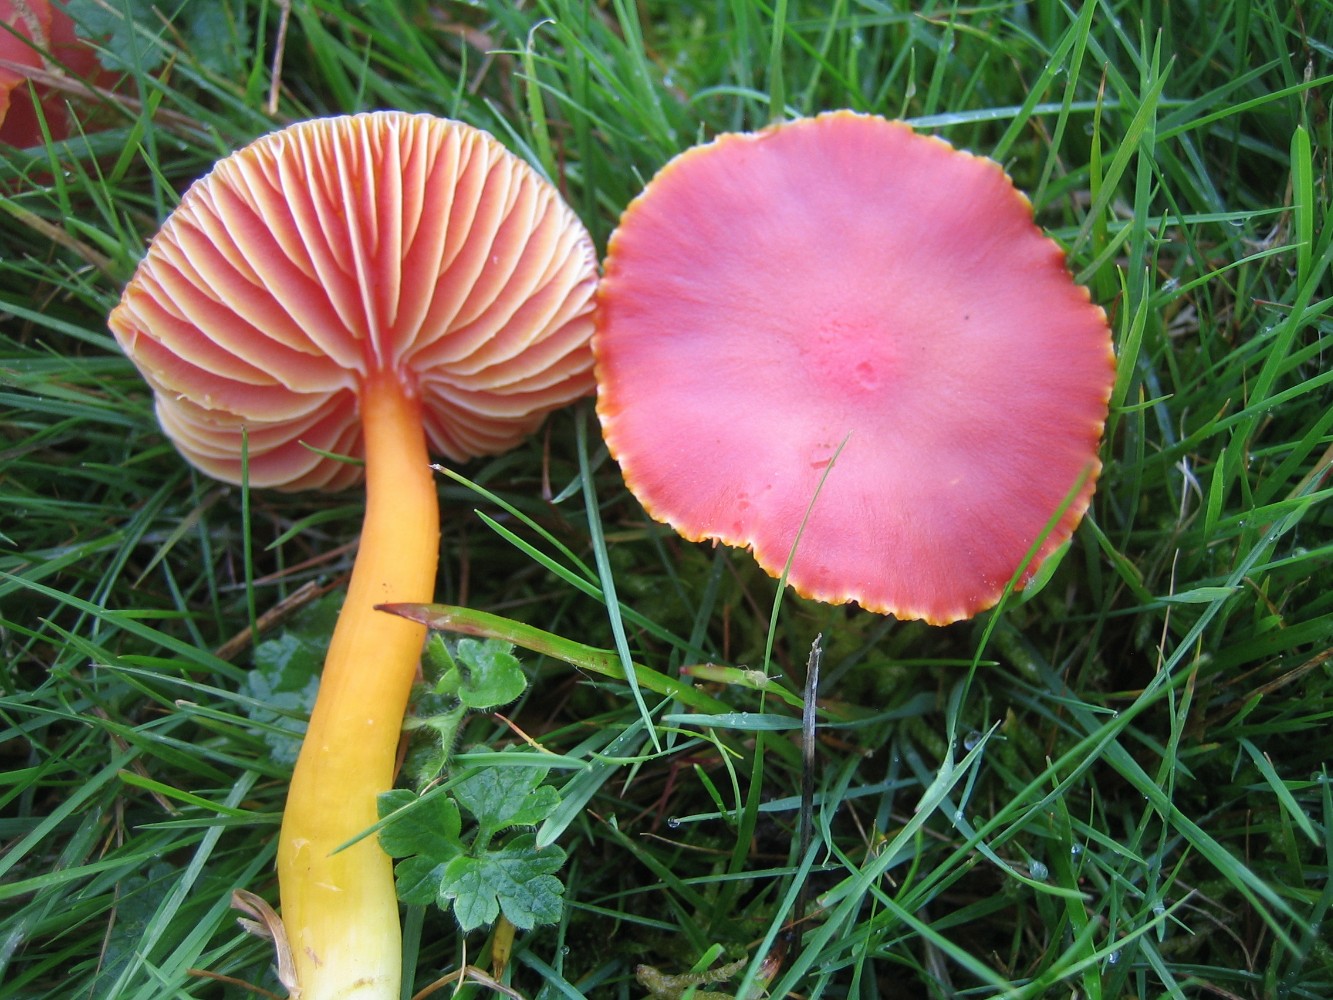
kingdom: Fungi
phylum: Basidiomycota
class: Agaricomycetes
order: Agaricales
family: Hygrophoraceae
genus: Hygrocybe
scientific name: Hygrocybe coccinea
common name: cinnober-vokshat
